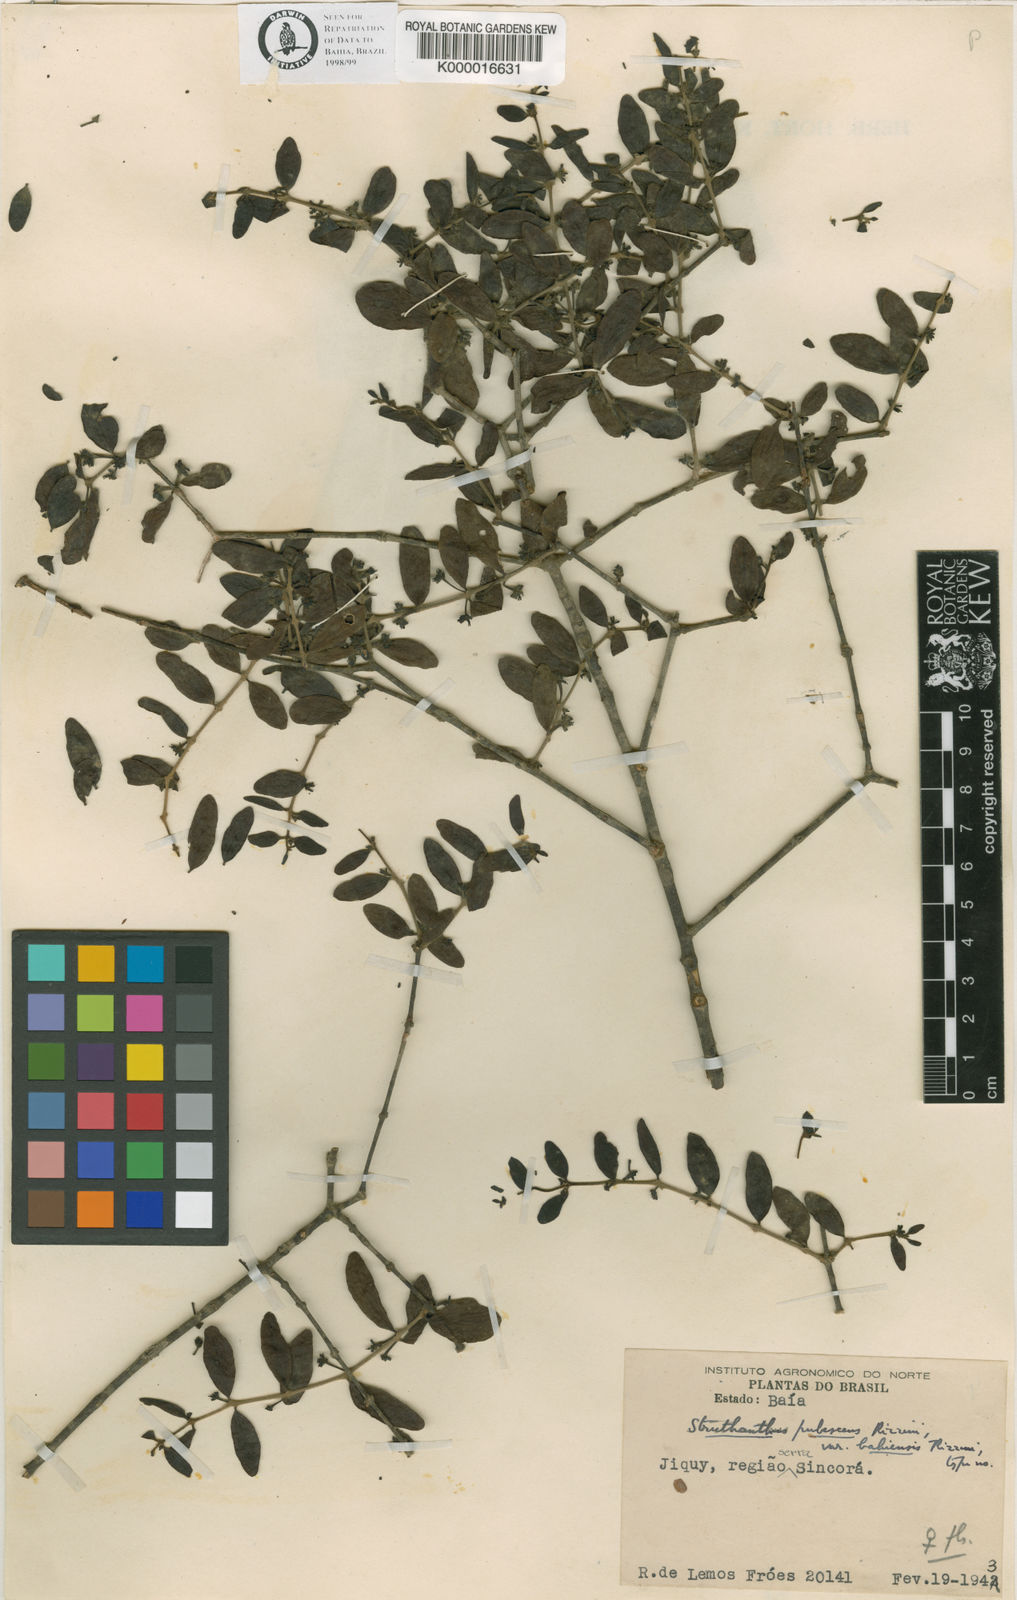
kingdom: Plantae
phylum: Tracheophyta
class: Magnoliopsida
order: Santalales
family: Loranthaceae
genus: Struthanthus
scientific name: Struthanthus
